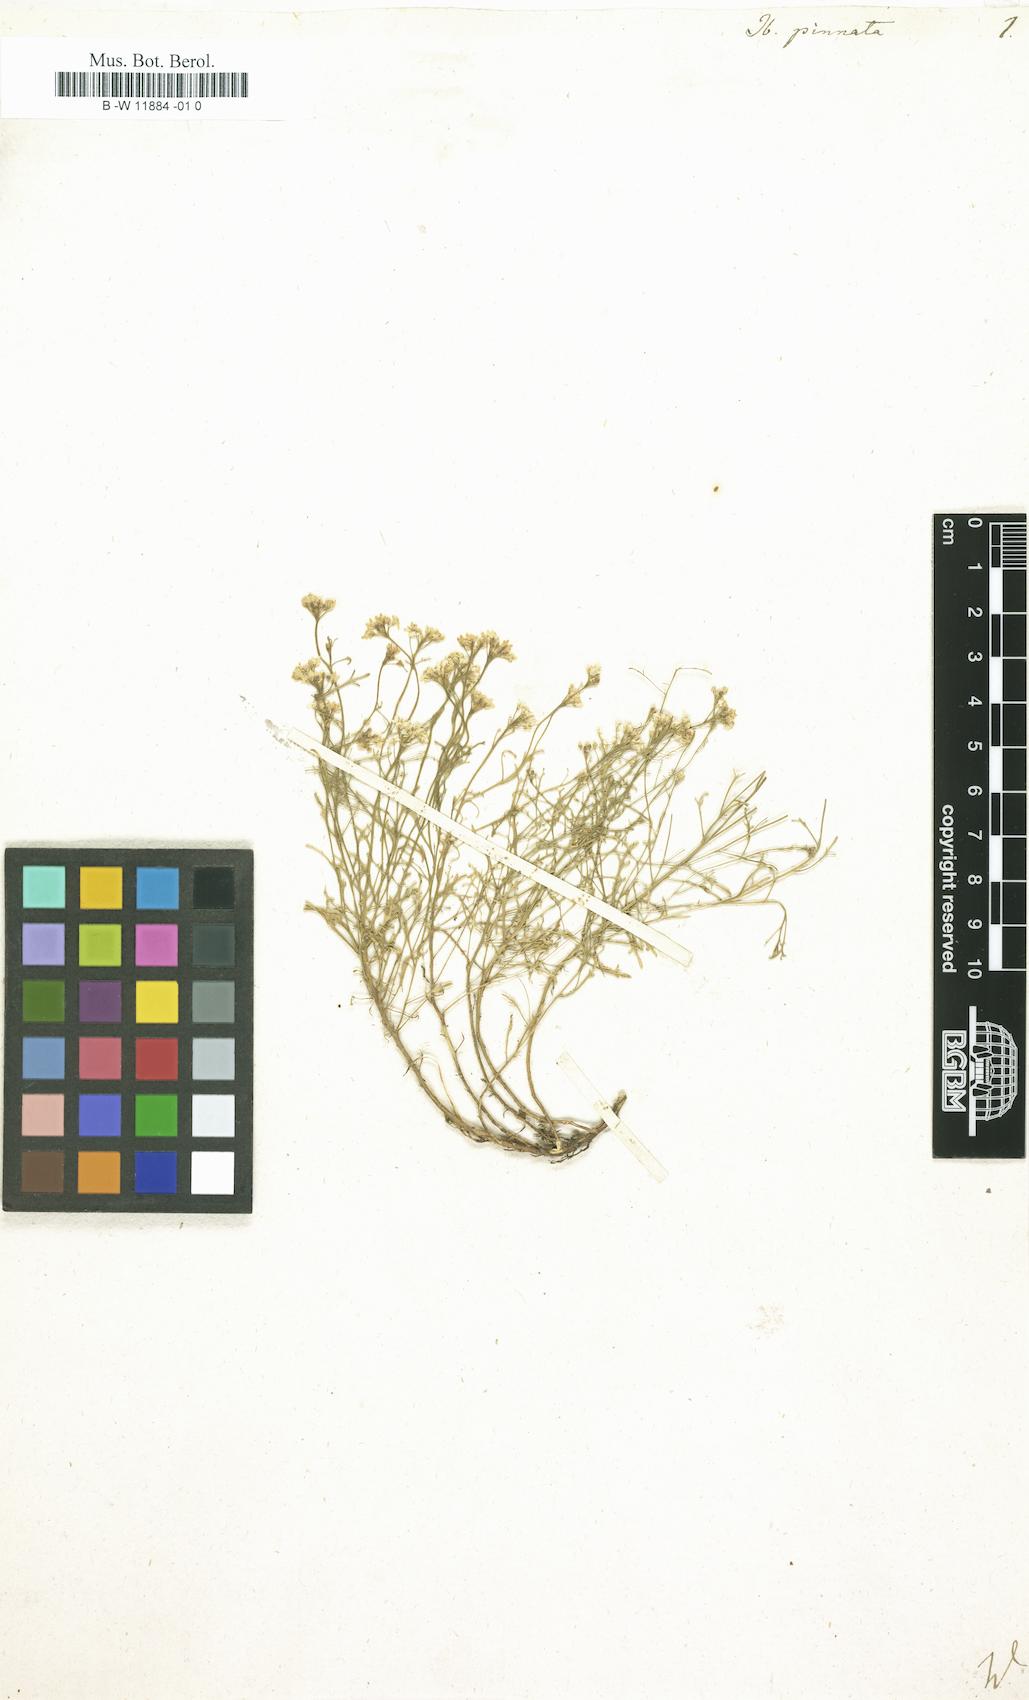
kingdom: Plantae
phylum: Tracheophyta
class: Magnoliopsida
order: Brassicales
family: Brassicaceae
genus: Iberis
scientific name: Iberis pinnata
